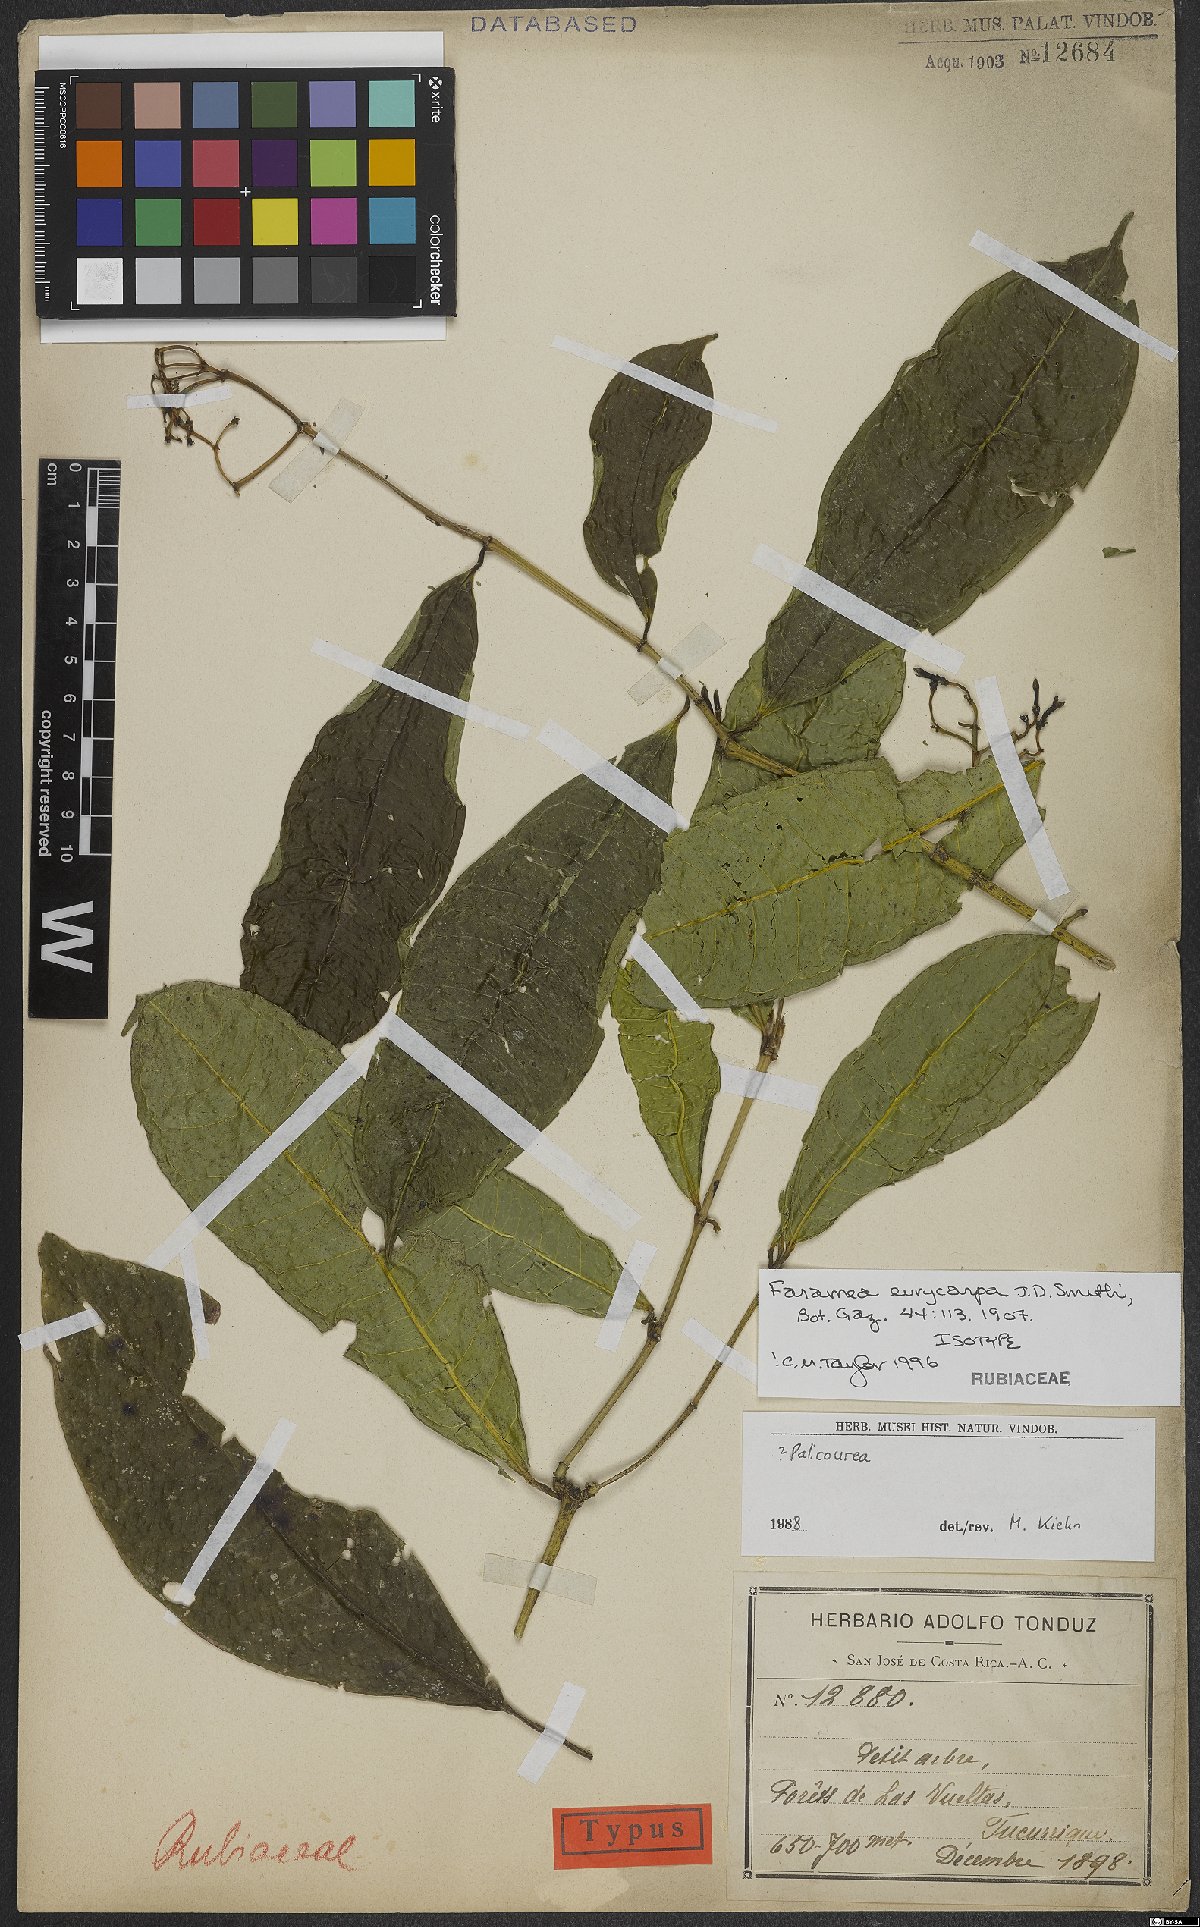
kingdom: Plantae
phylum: Tracheophyta
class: Magnoliopsida
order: Gentianales
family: Rubiaceae
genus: Faramea
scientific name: Faramea eurycarpa
